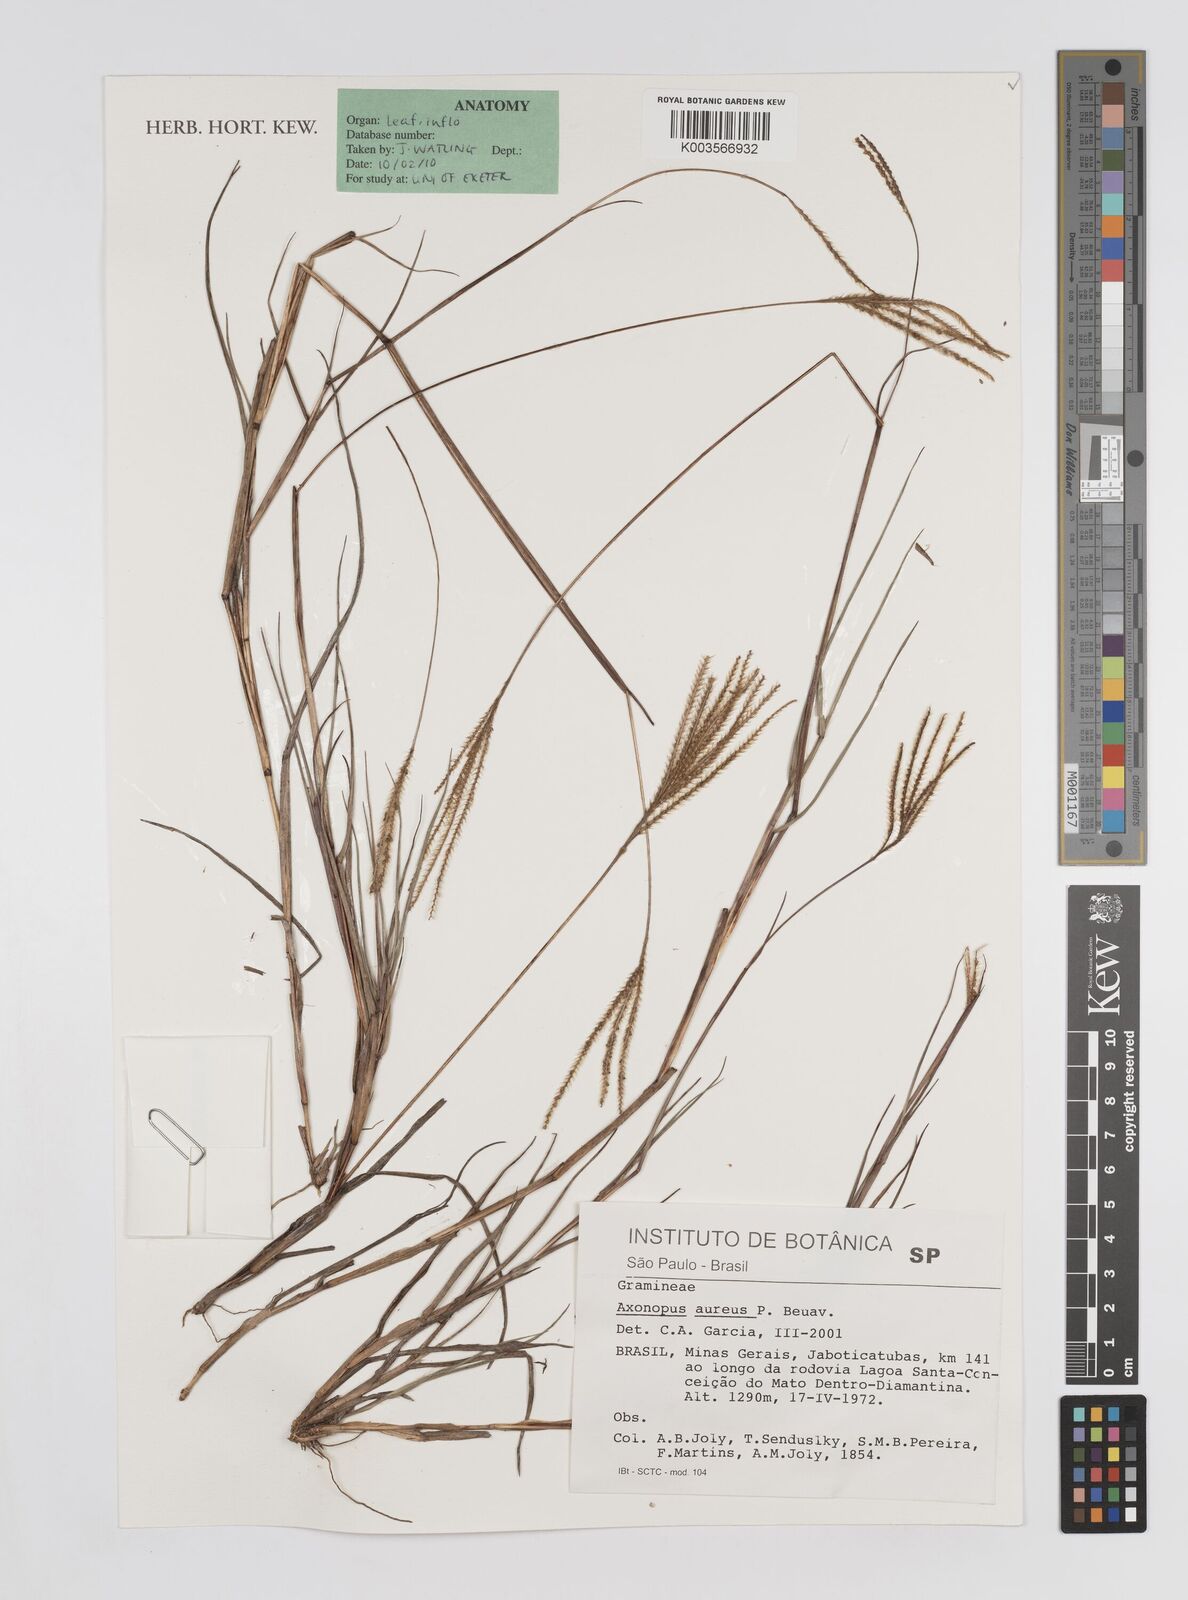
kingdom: Plantae
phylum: Tracheophyta
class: Liliopsida
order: Poales
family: Poaceae
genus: Axonopus
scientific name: Axonopus aureus
